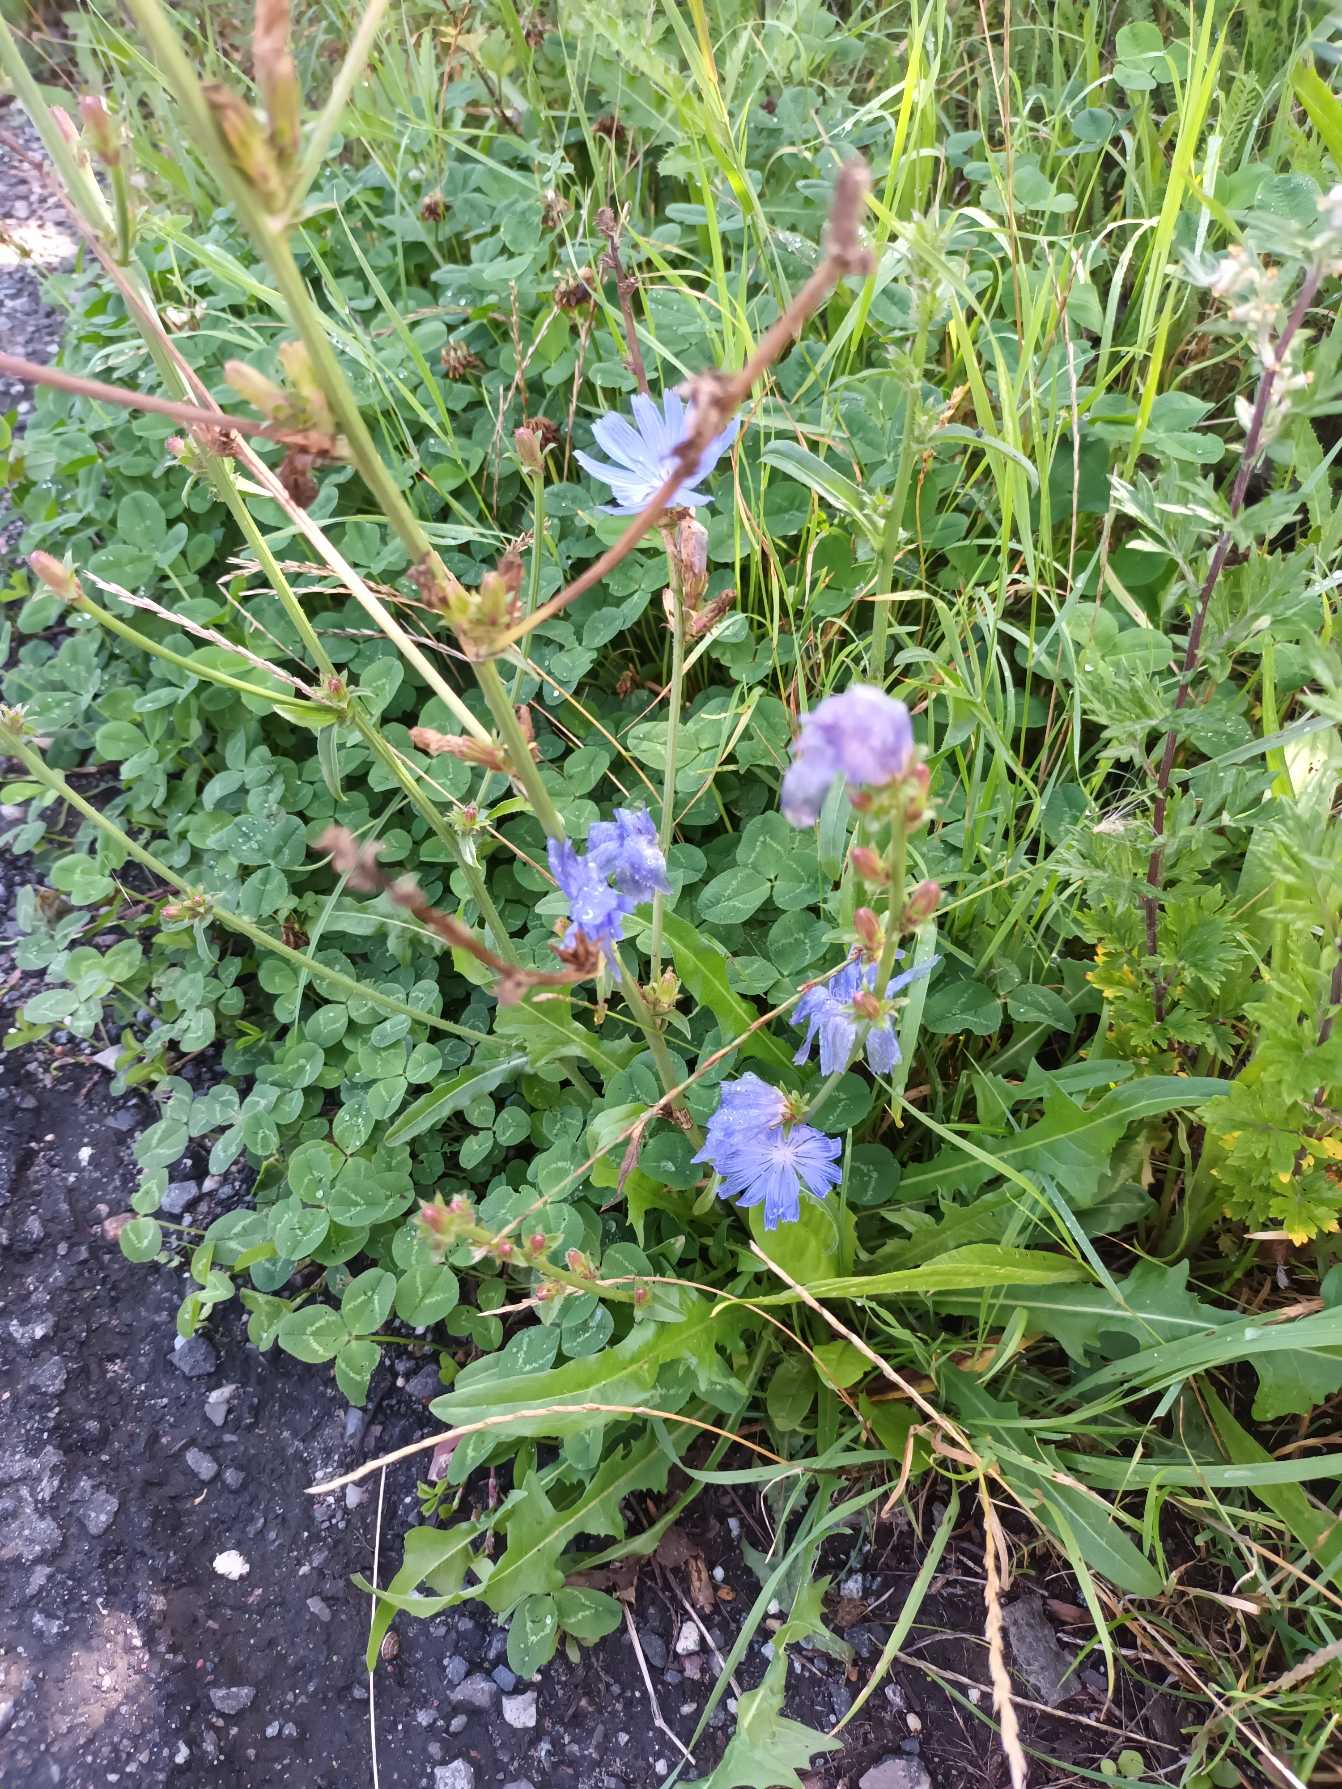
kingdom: Plantae
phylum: Tracheophyta
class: Magnoliopsida
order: Asterales
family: Asteraceae
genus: Cichorium
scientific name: Cichorium intybus
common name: Cikorie
